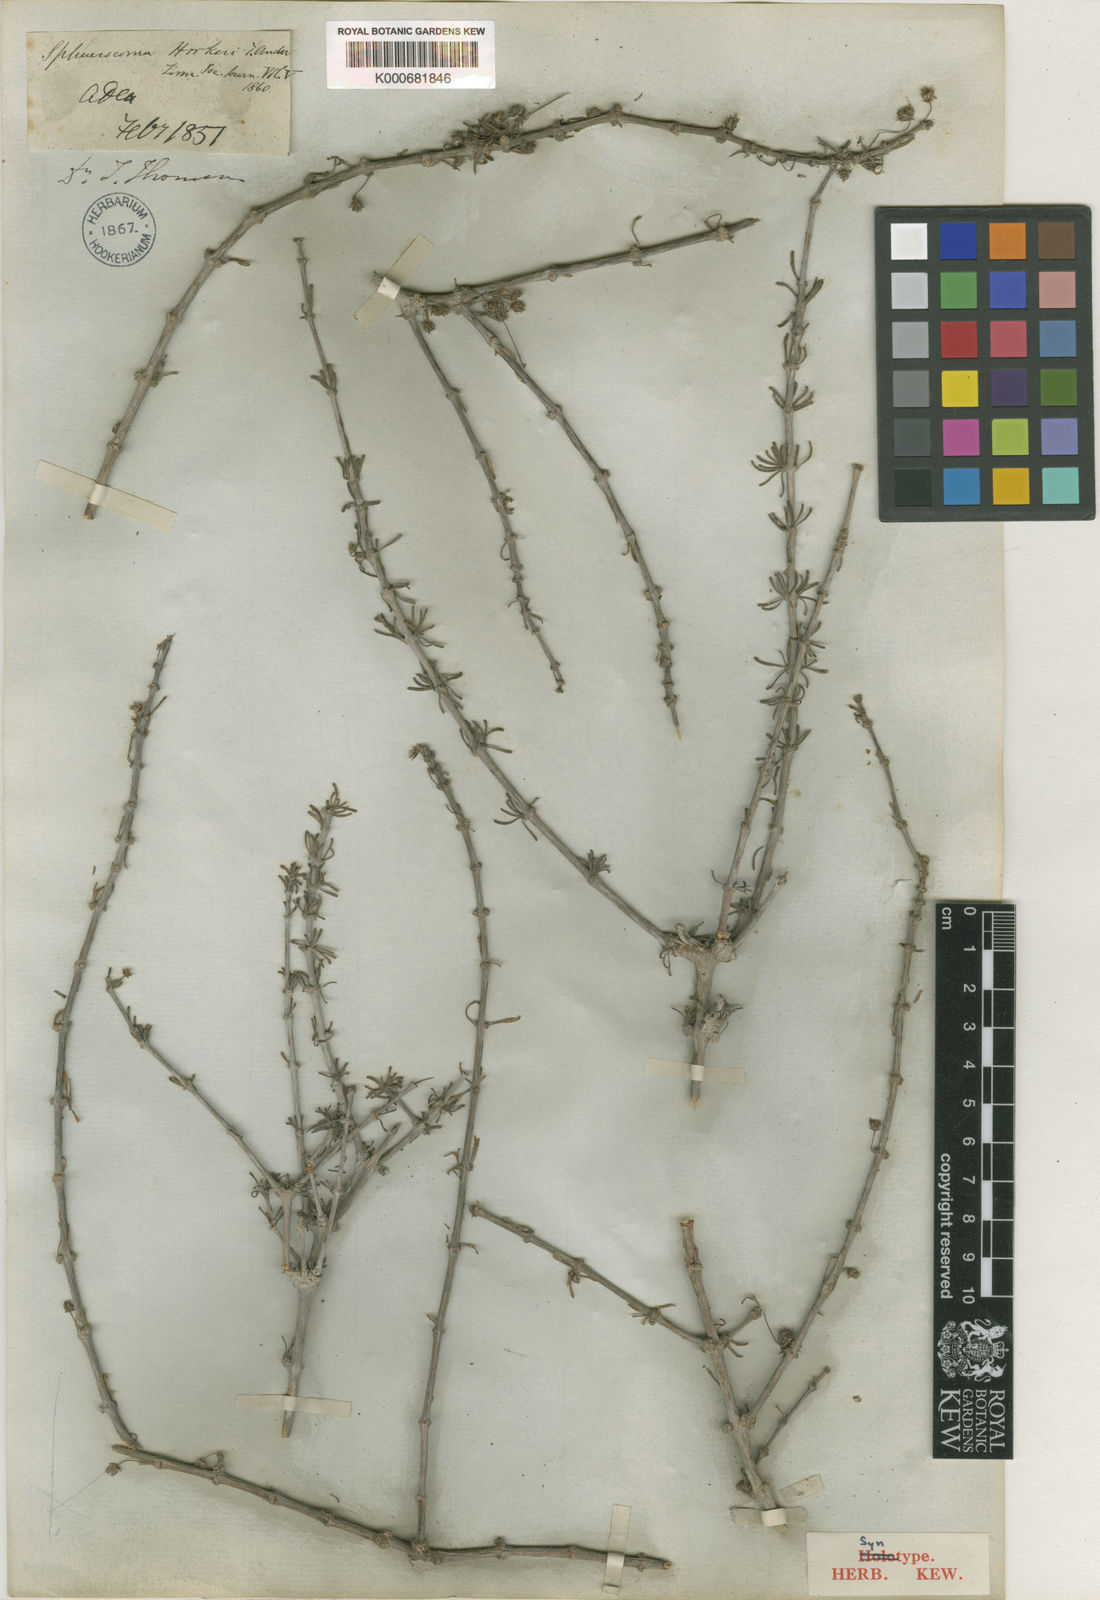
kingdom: Plantae
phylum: Tracheophyta
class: Magnoliopsida
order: Caryophyllales
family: Caryophyllaceae
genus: Sphaerocoma
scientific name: Sphaerocoma hookeri
